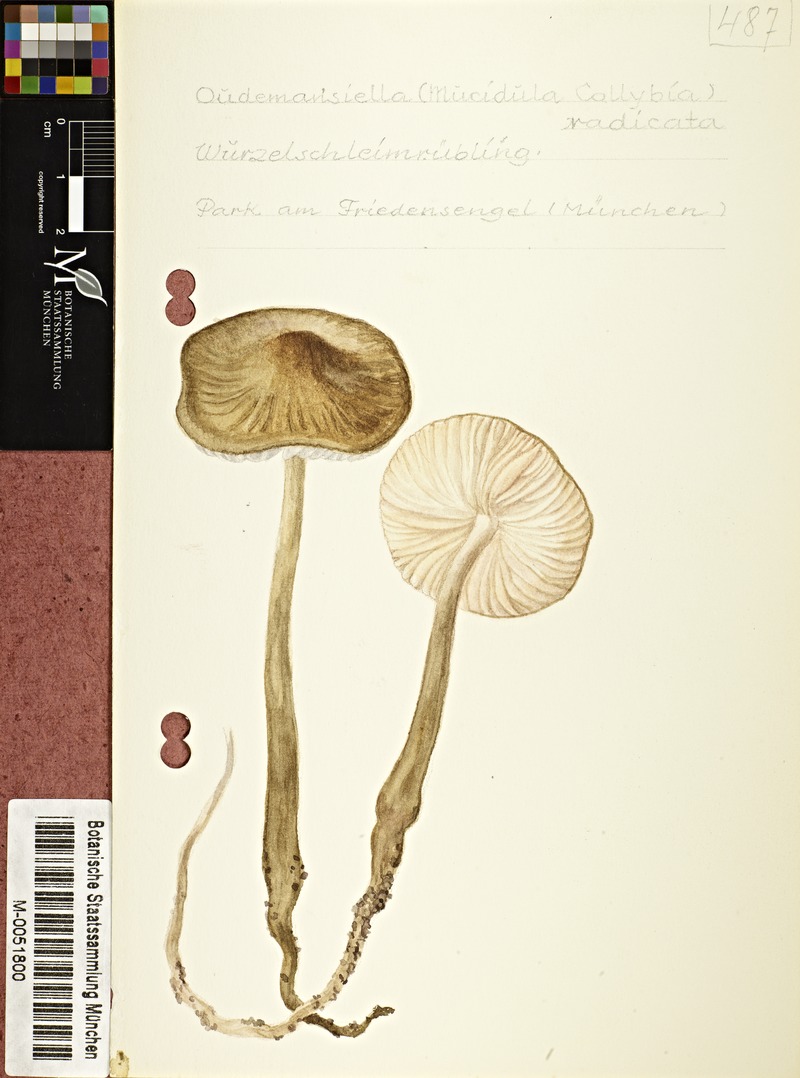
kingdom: Fungi
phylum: Basidiomycota
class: Agaricomycetes
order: Agaricales
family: Physalacriaceae
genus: Hymenopellis
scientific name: Hymenopellis radicata
